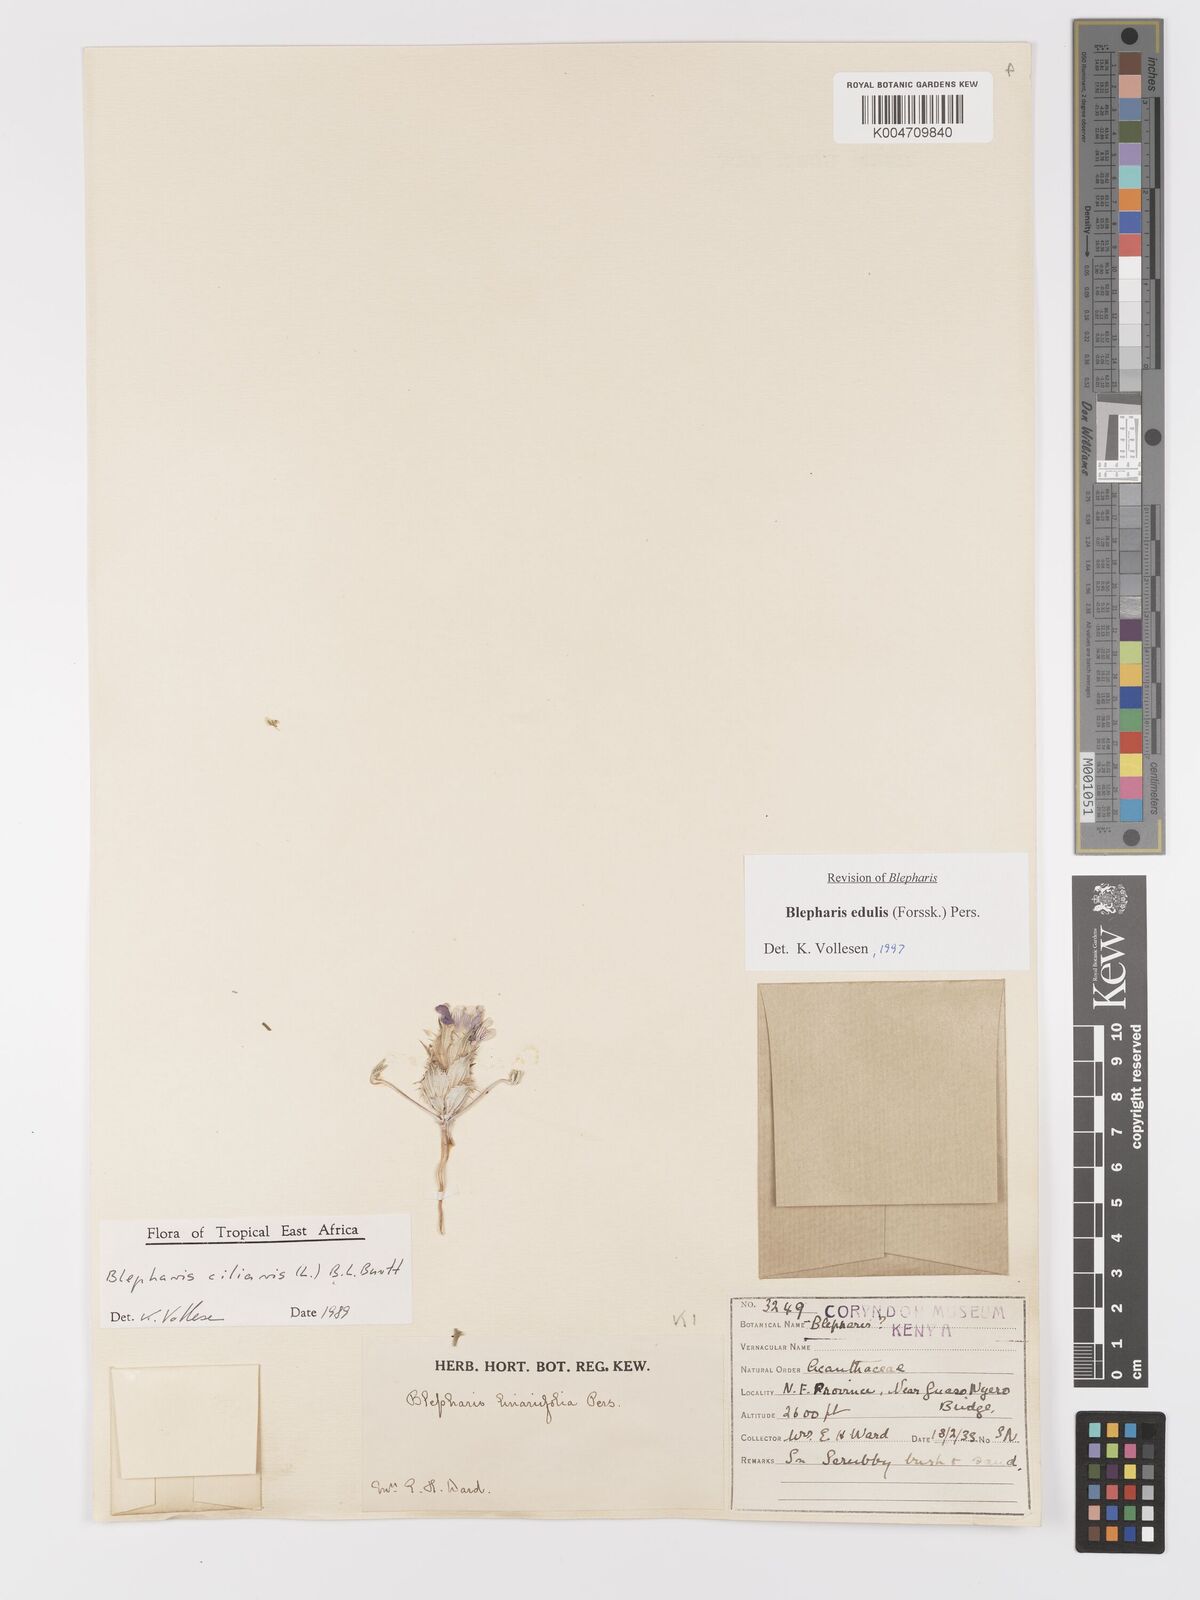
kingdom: Plantae
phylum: Tracheophyta
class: Magnoliopsida
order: Lamiales
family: Acanthaceae
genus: Blepharis
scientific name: Blepharis edulis
